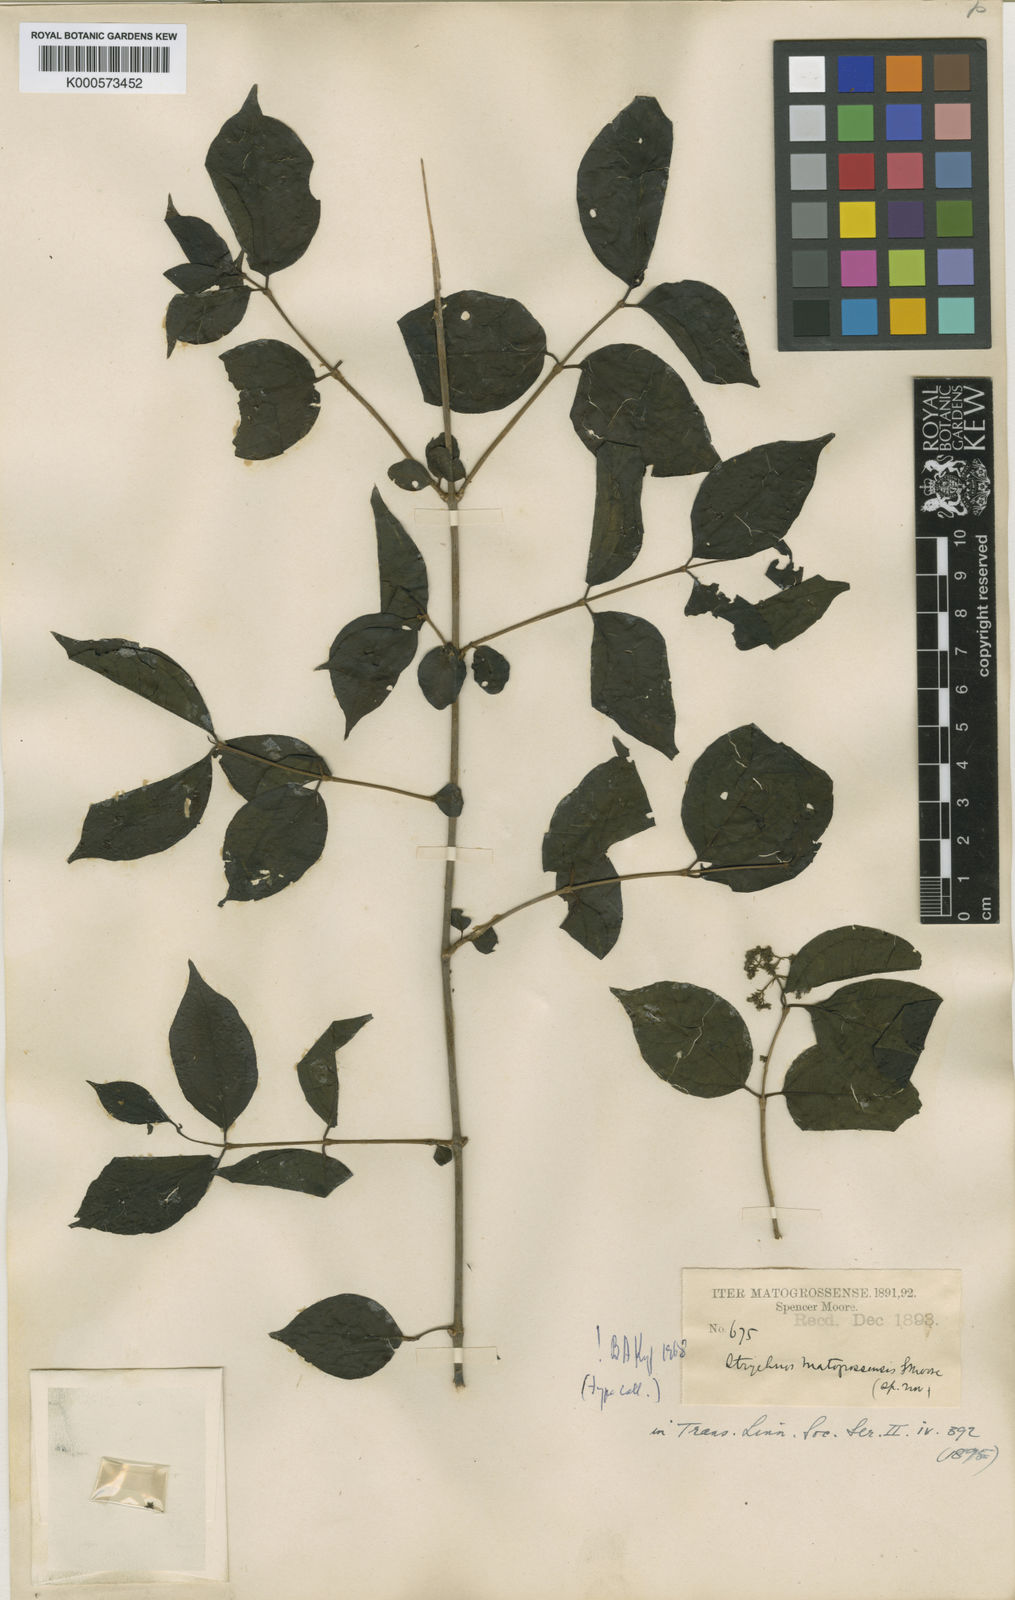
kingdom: Plantae
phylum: Tracheophyta
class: Magnoliopsida
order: Gentianales
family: Loganiaceae
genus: Strychnos
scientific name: Strychnos mattogrossensis
